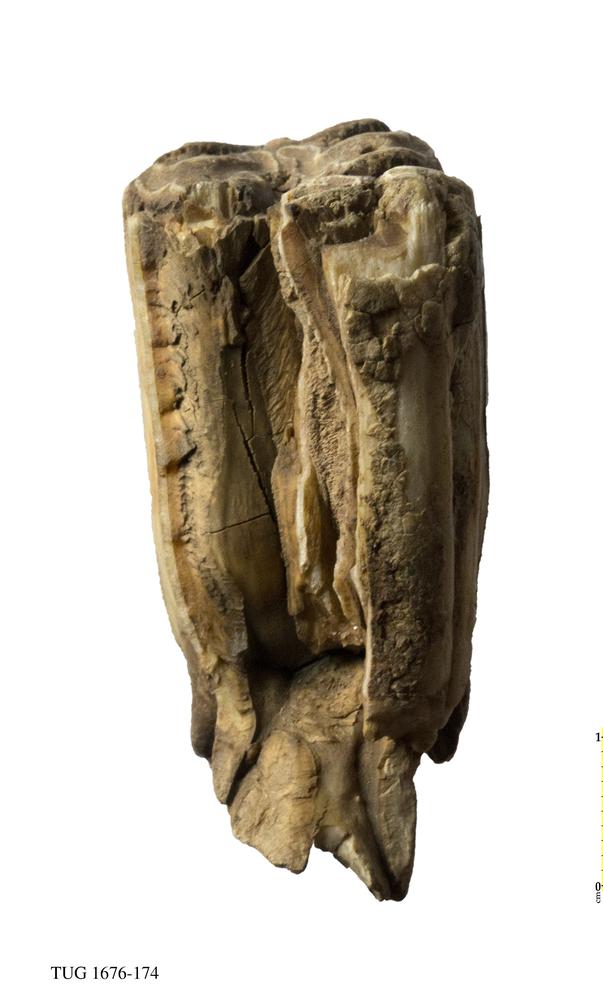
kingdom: Animalia
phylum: Chordata
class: Mammalia
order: Perissodactyla
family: Equidae
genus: Equus
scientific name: Equus ferus
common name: Russian wild horse
